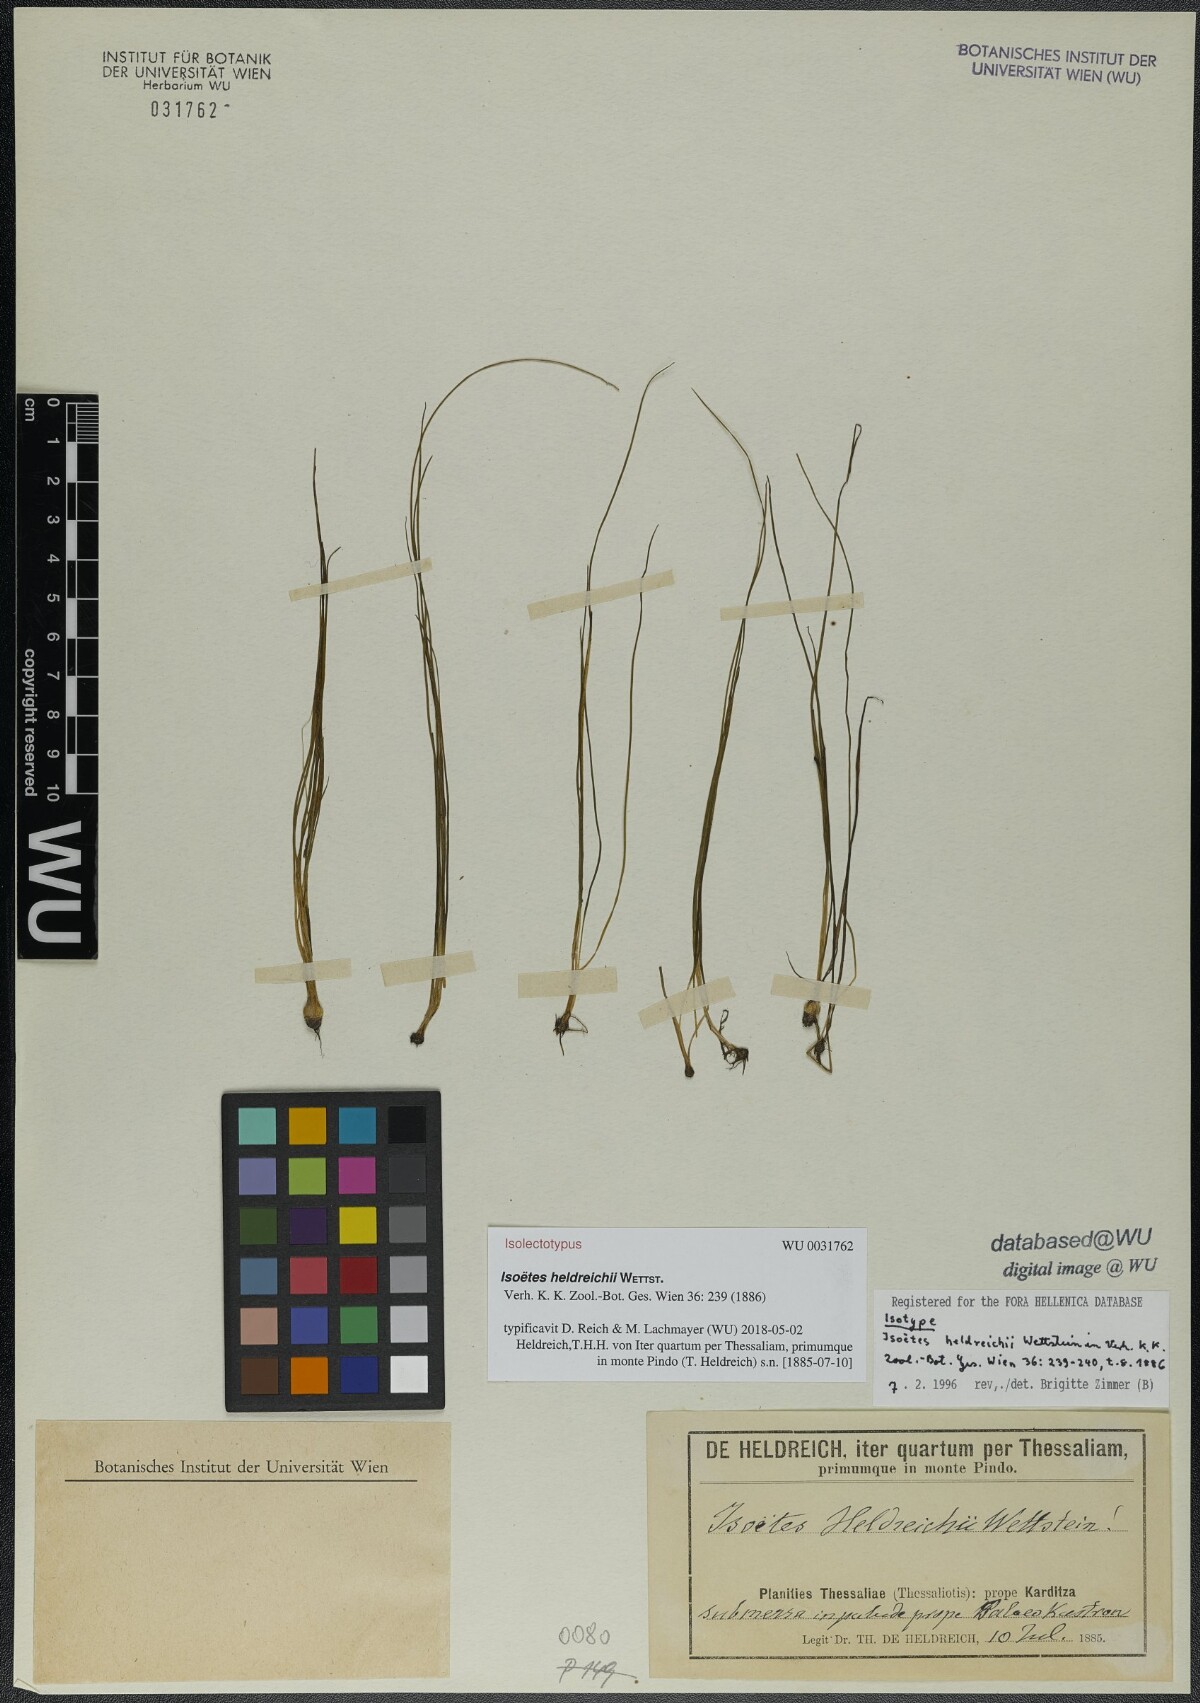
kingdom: Plantae
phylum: Tracheophyta
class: Lycopodiopsida
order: Isoetales
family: Isoetaceae
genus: Isoetes
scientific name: Isoetes heldreichii
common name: Pindus quillwort
